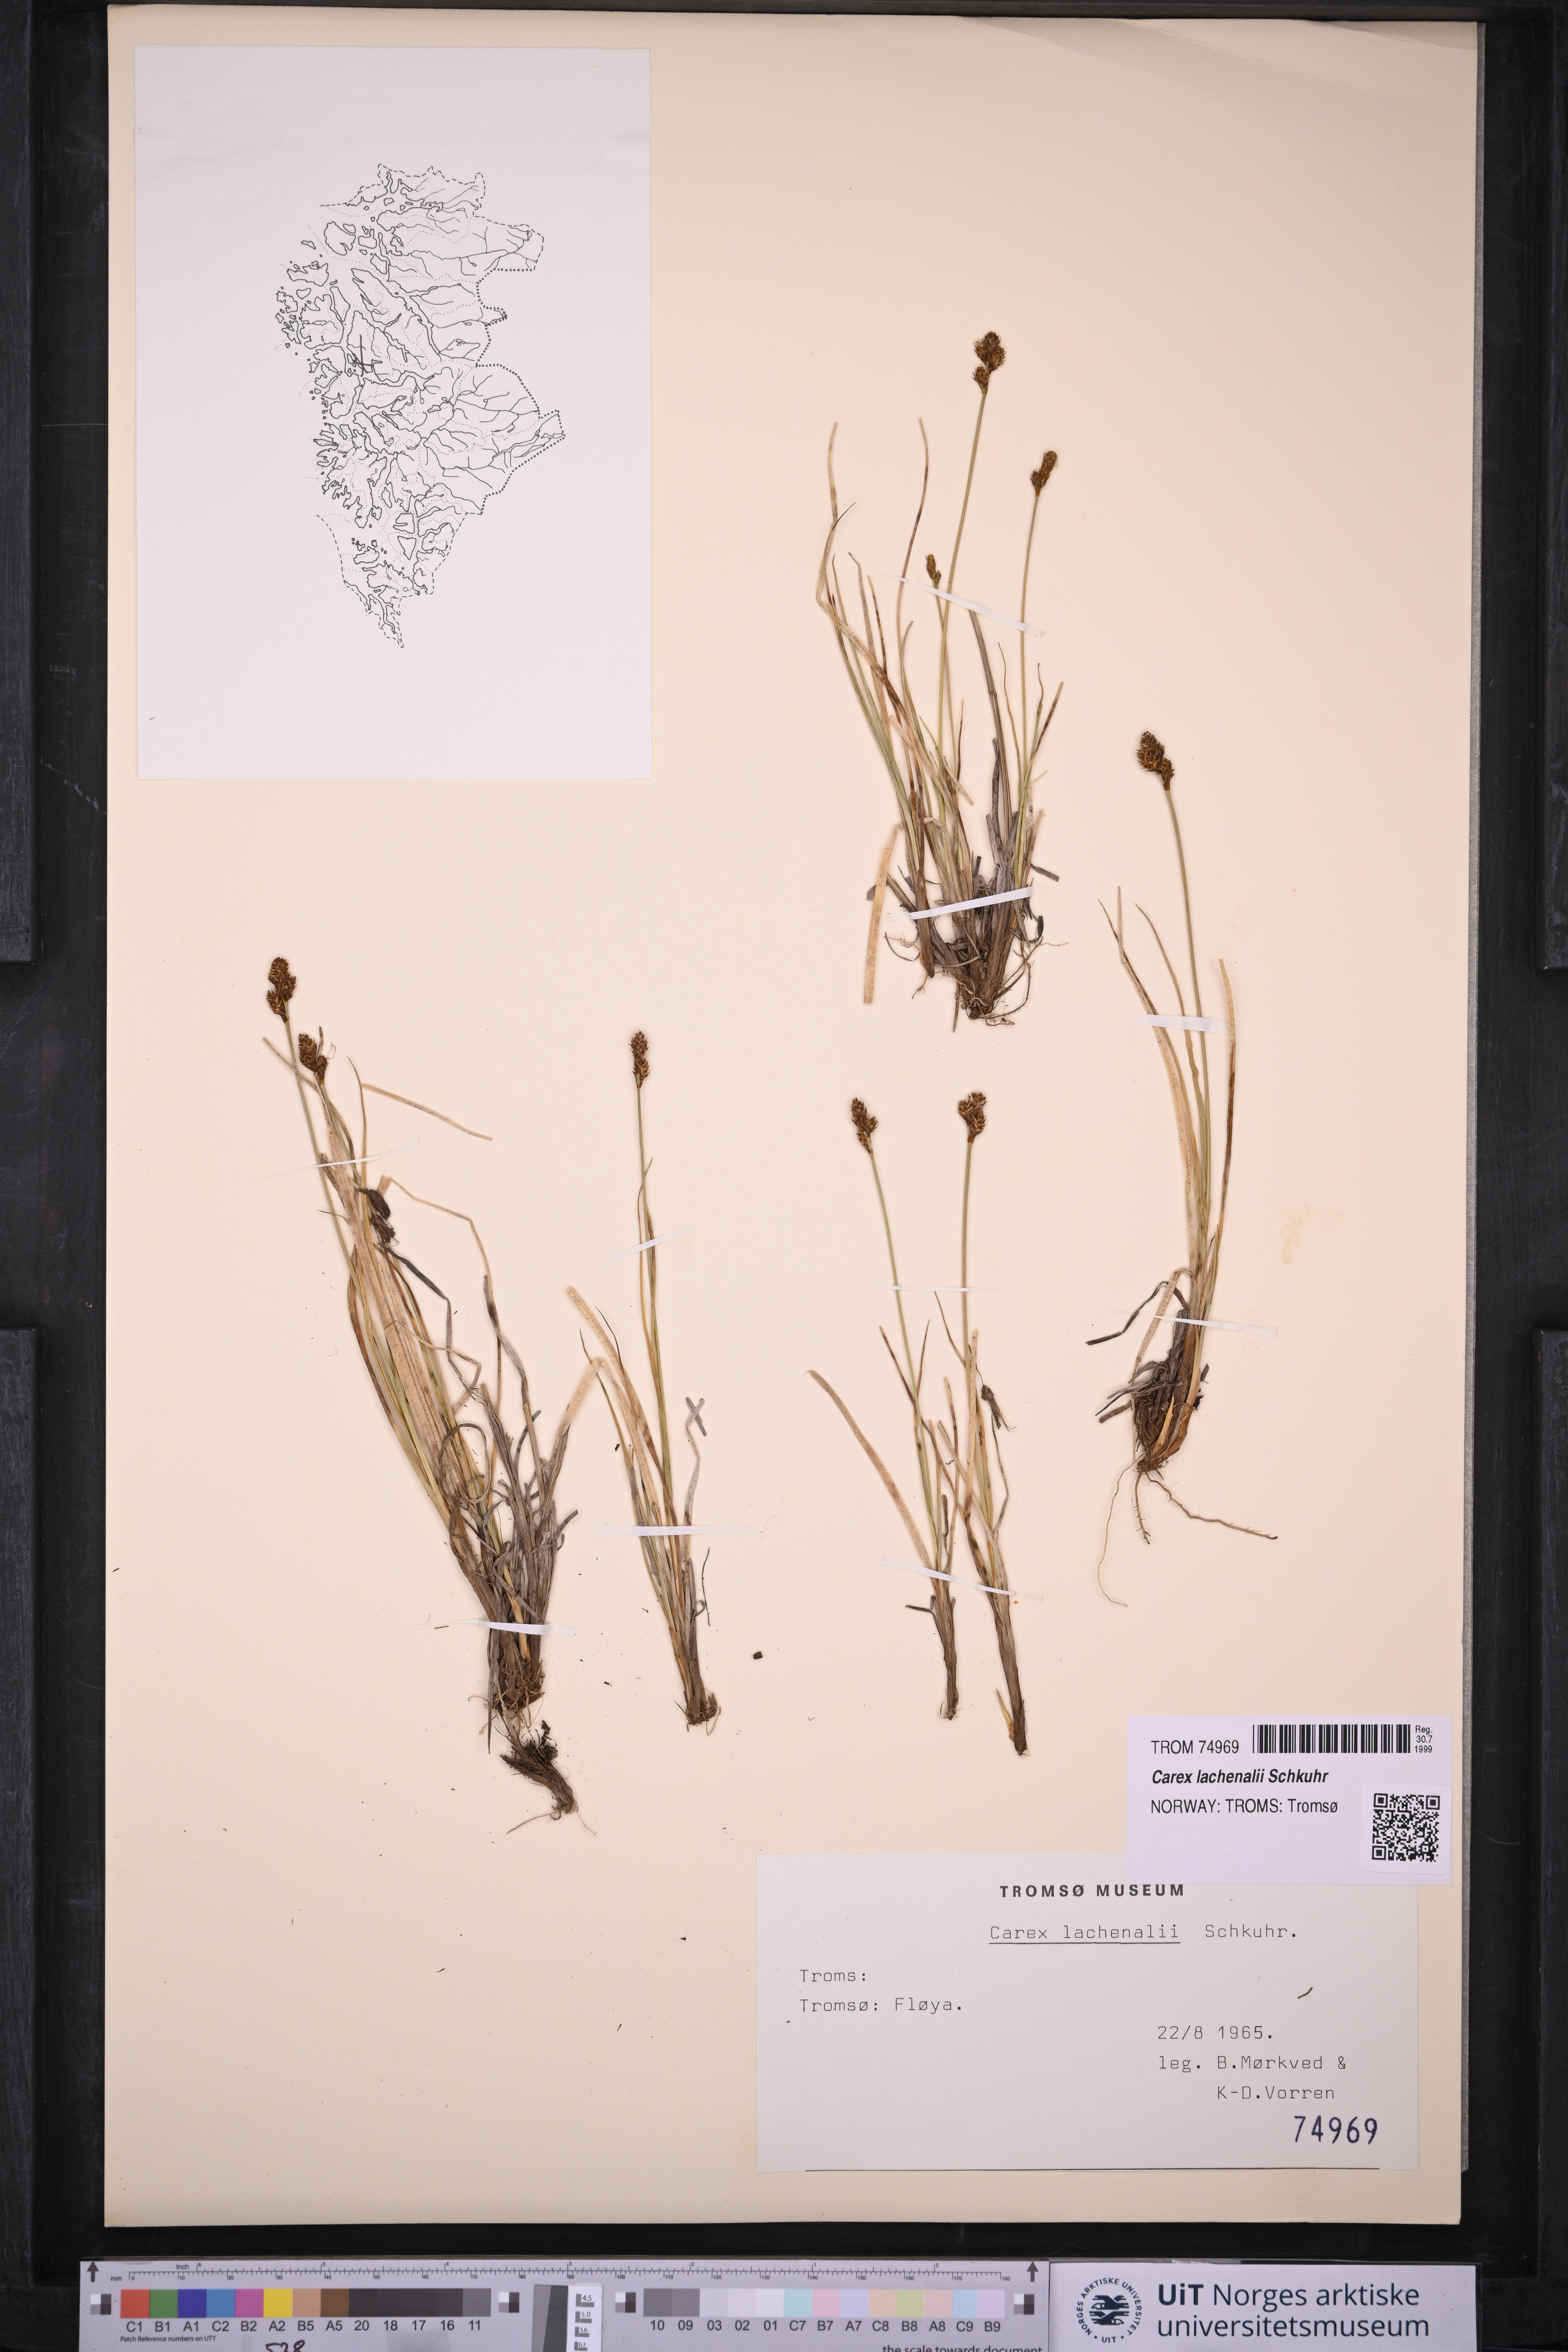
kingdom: Plantae
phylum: Tracheophyta
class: Liliopsida
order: Poales
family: Cyperaceae
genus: Carex
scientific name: Carex lachenalii
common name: Hare's-foot sedge
